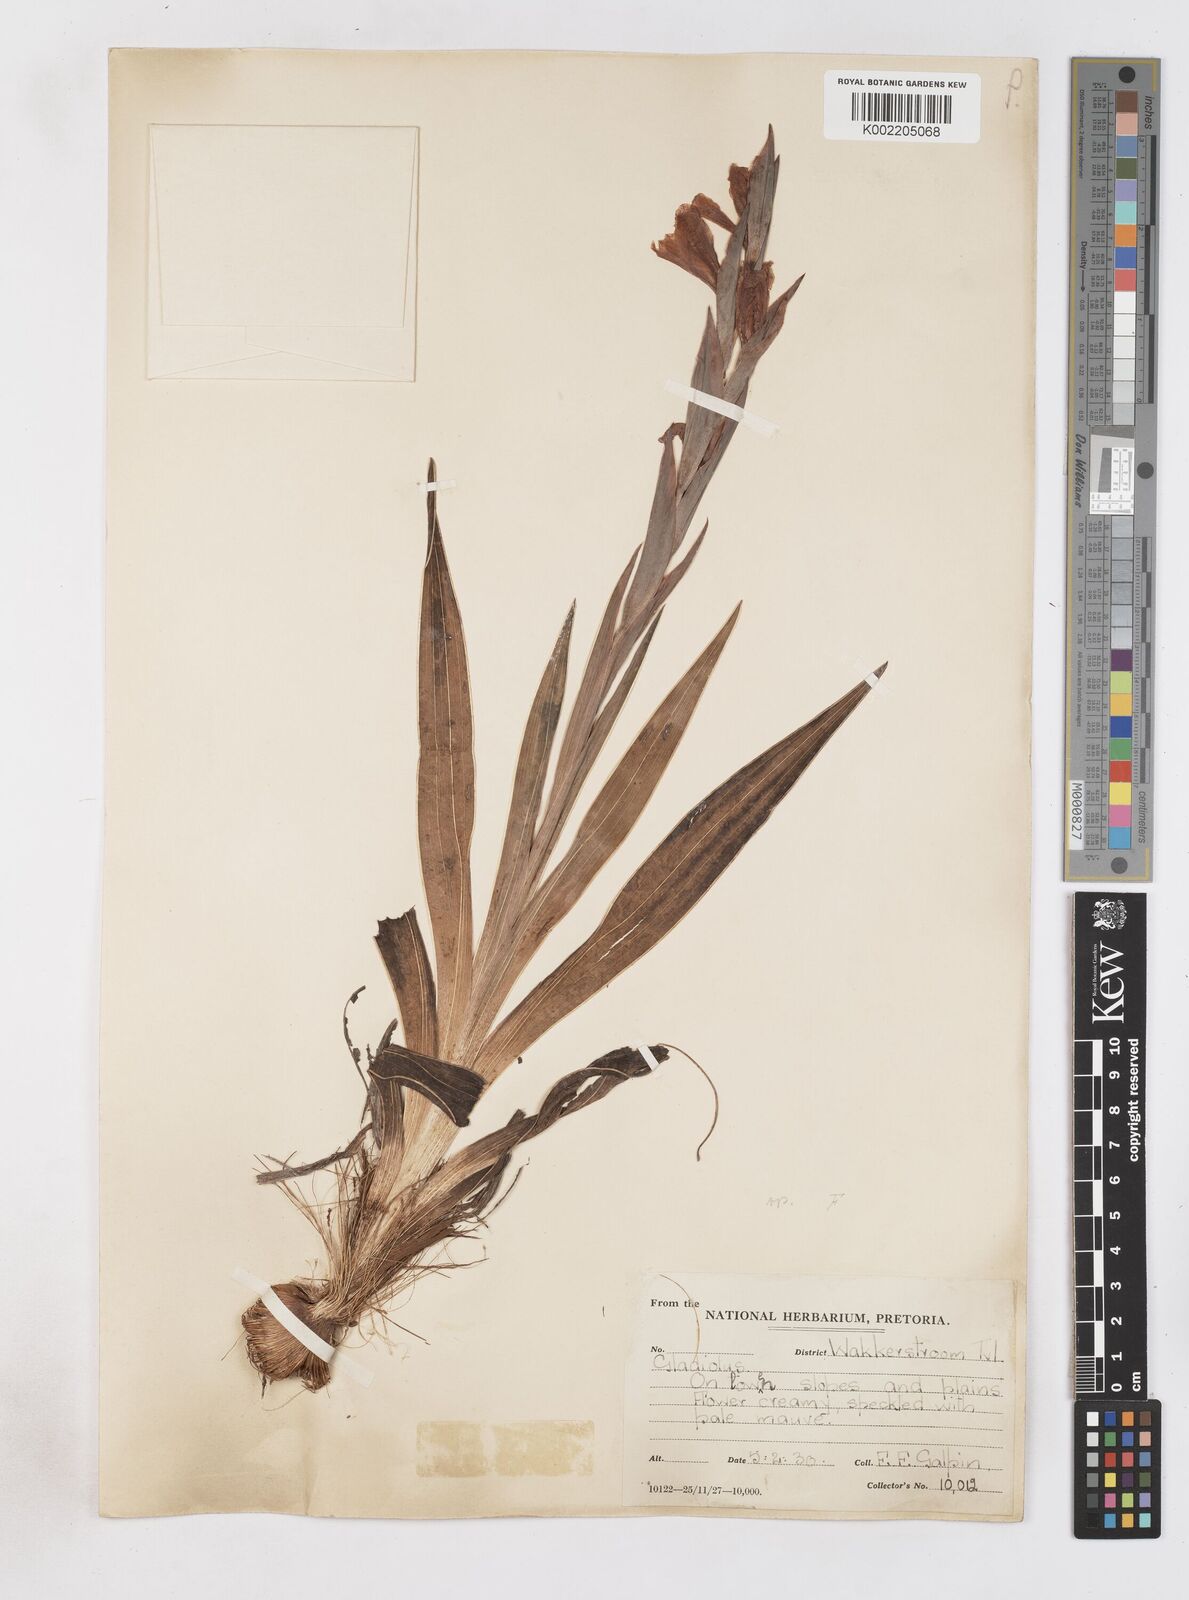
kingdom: Plantae
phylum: Tracheophyta
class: Liliopsida
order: Asparagales
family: Iridaceae
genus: Gladiolus
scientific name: Gladiolus ecklonii
